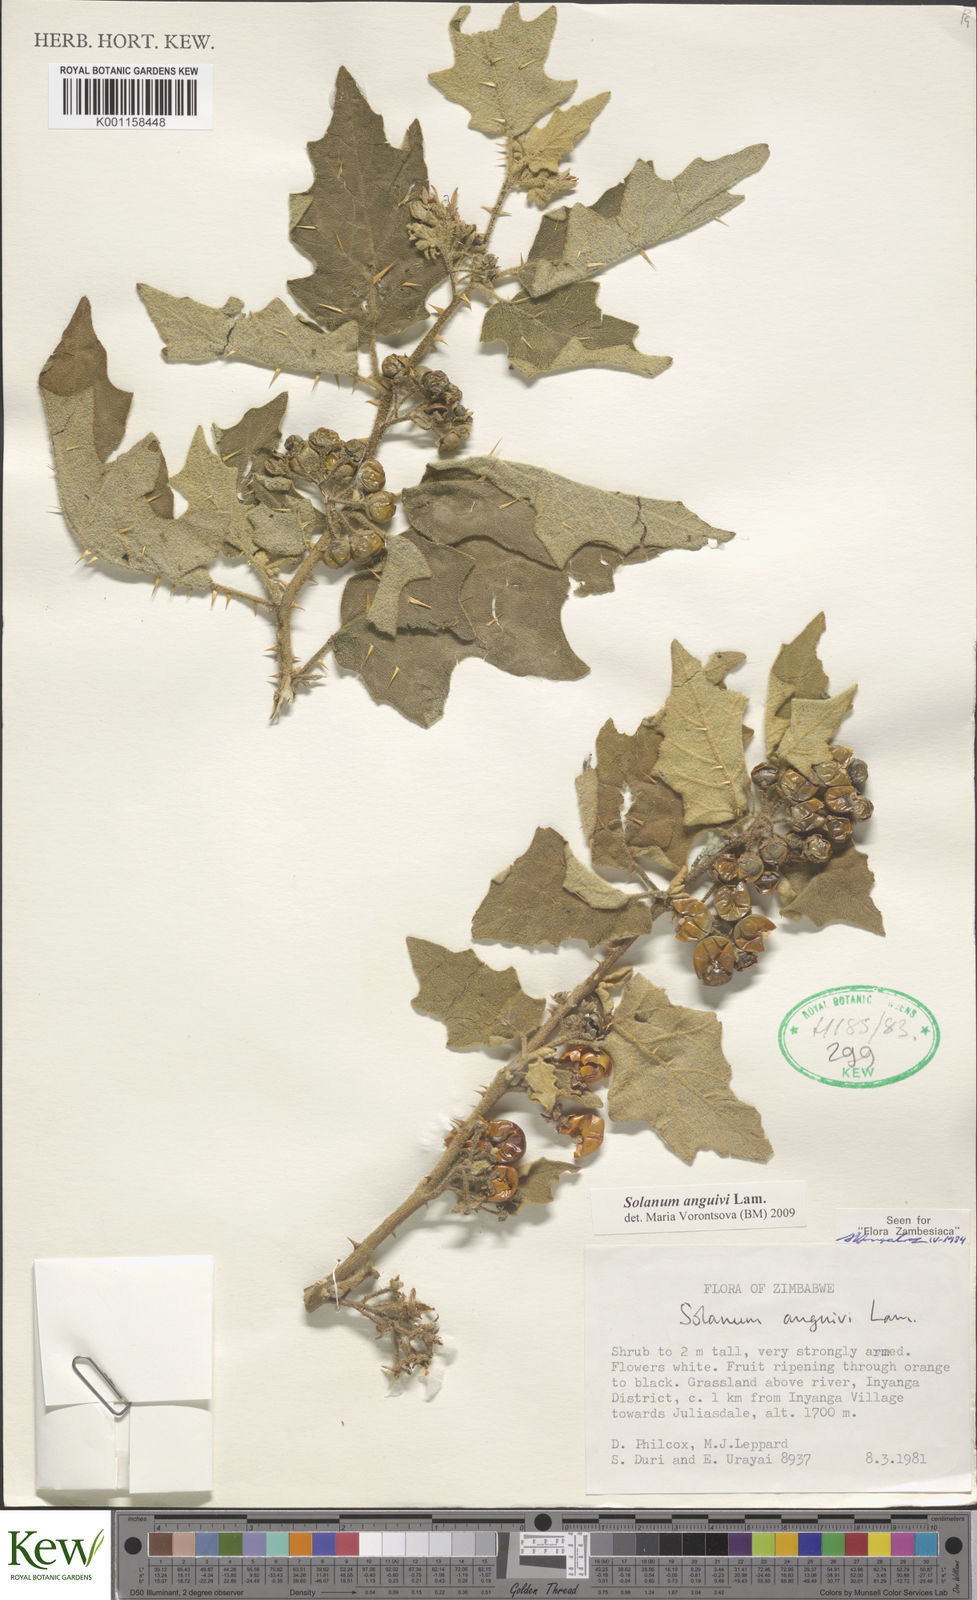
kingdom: Plantae
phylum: Tracheophyta
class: Magnoliopsida
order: Solanales
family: Solanaceae
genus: Solanum
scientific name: Solanum anguivi
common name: Forest bitterberry
